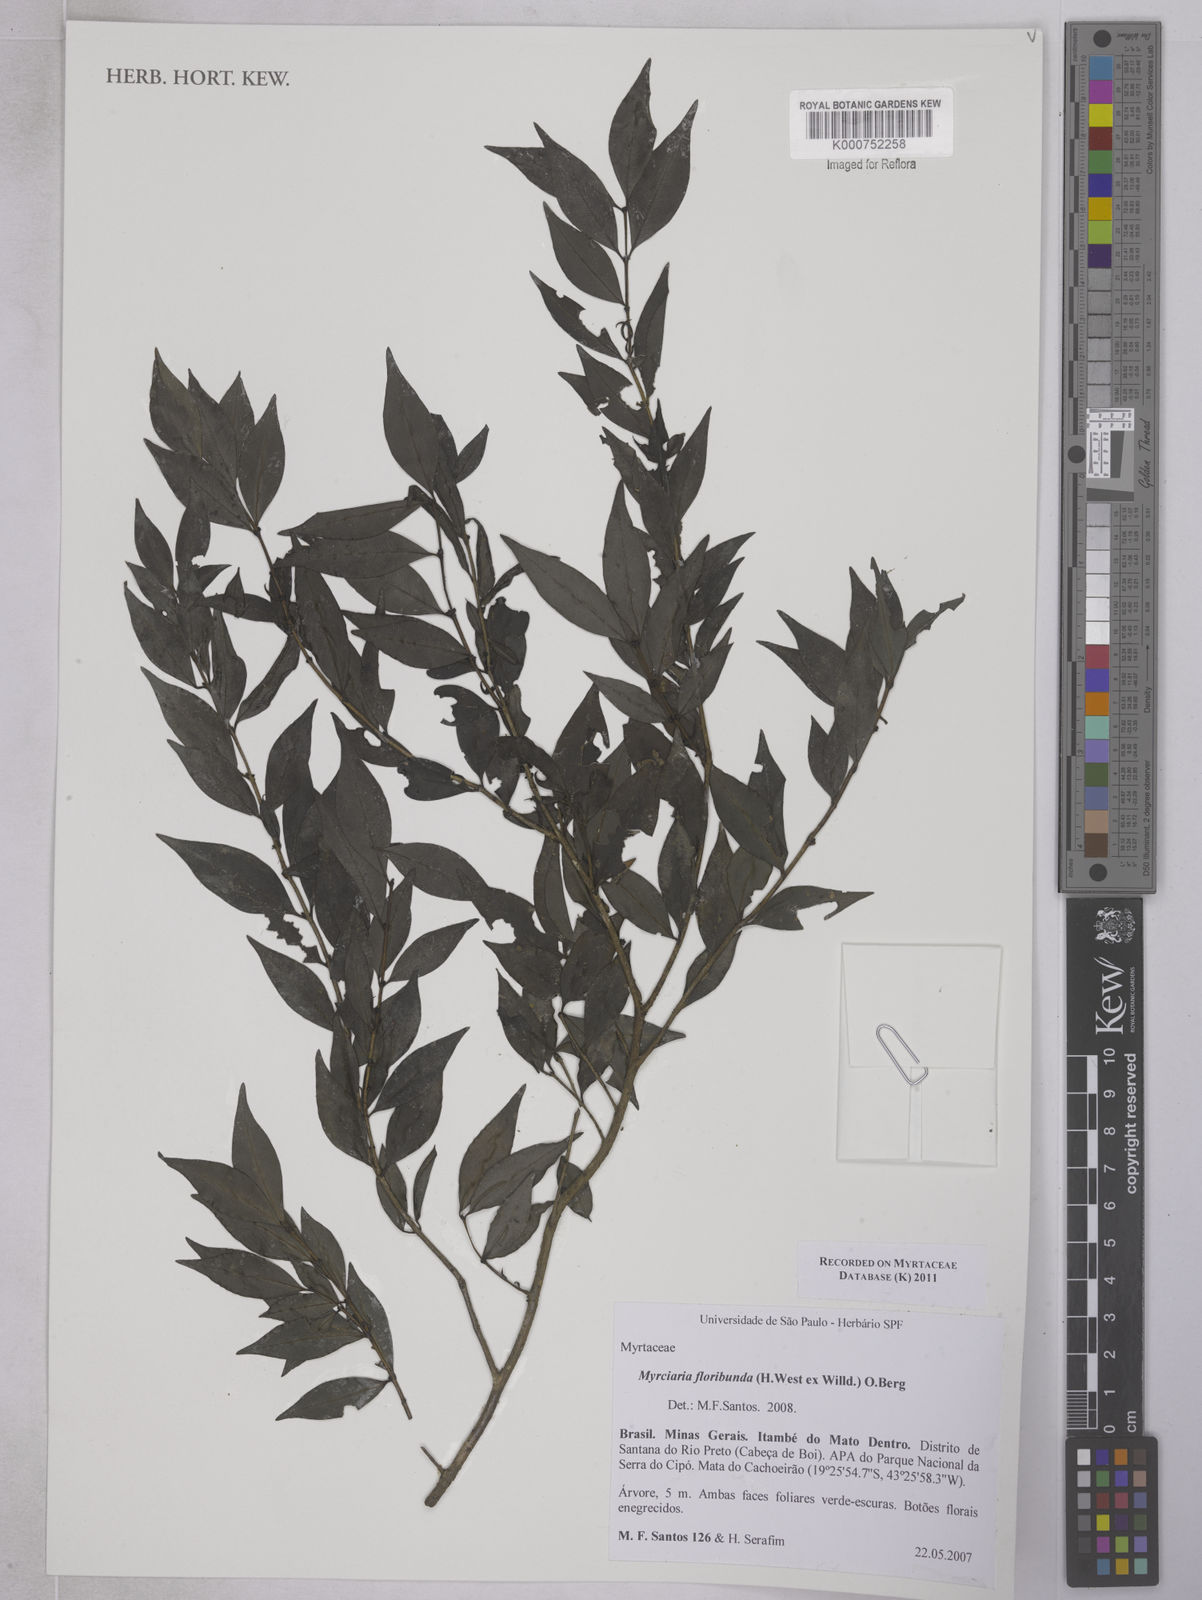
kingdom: Plantae
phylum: Tracheophyta
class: Magnoliopsida
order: Myrtales
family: Myrtaceae
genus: Myrciaria
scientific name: Myrciaria floribunda
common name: Guavaberry
